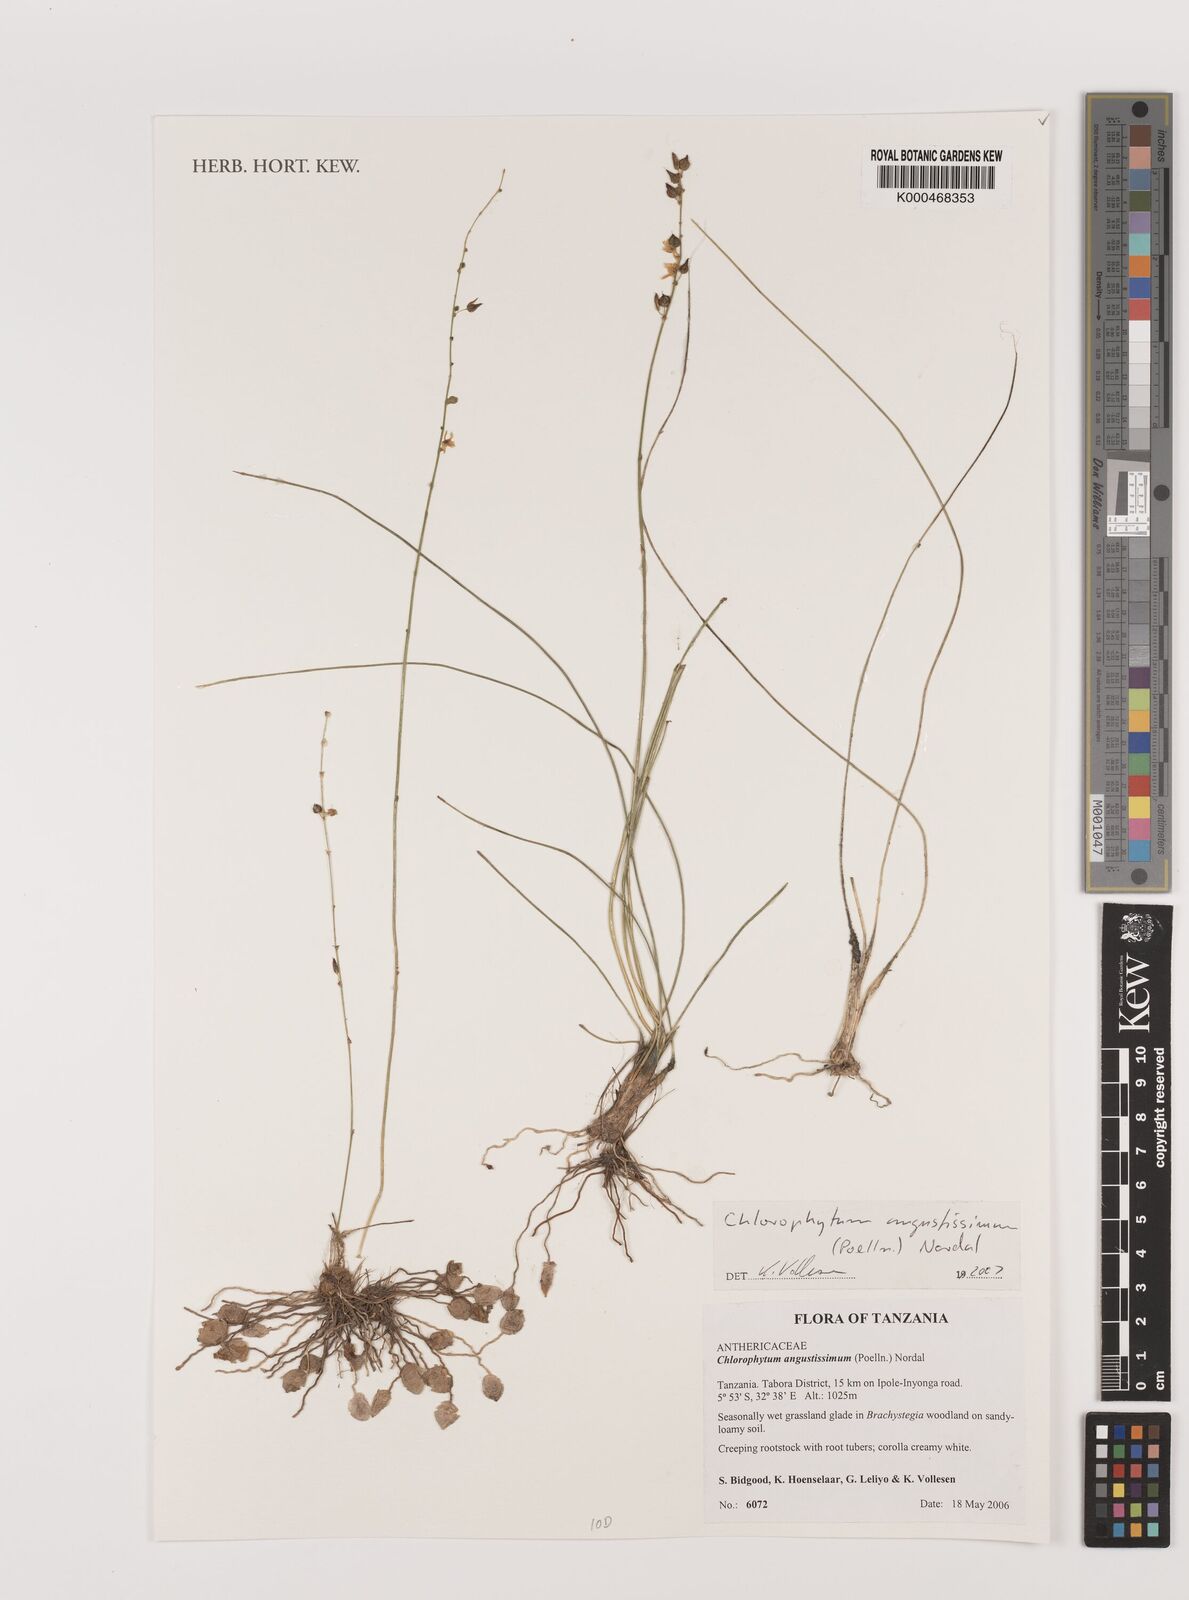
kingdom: Plantae
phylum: Tracheophyta
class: Liliopsida
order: Asparagales
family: Asparagaceae
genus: Chlorophytum
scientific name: Chlorophytum angustissimum
